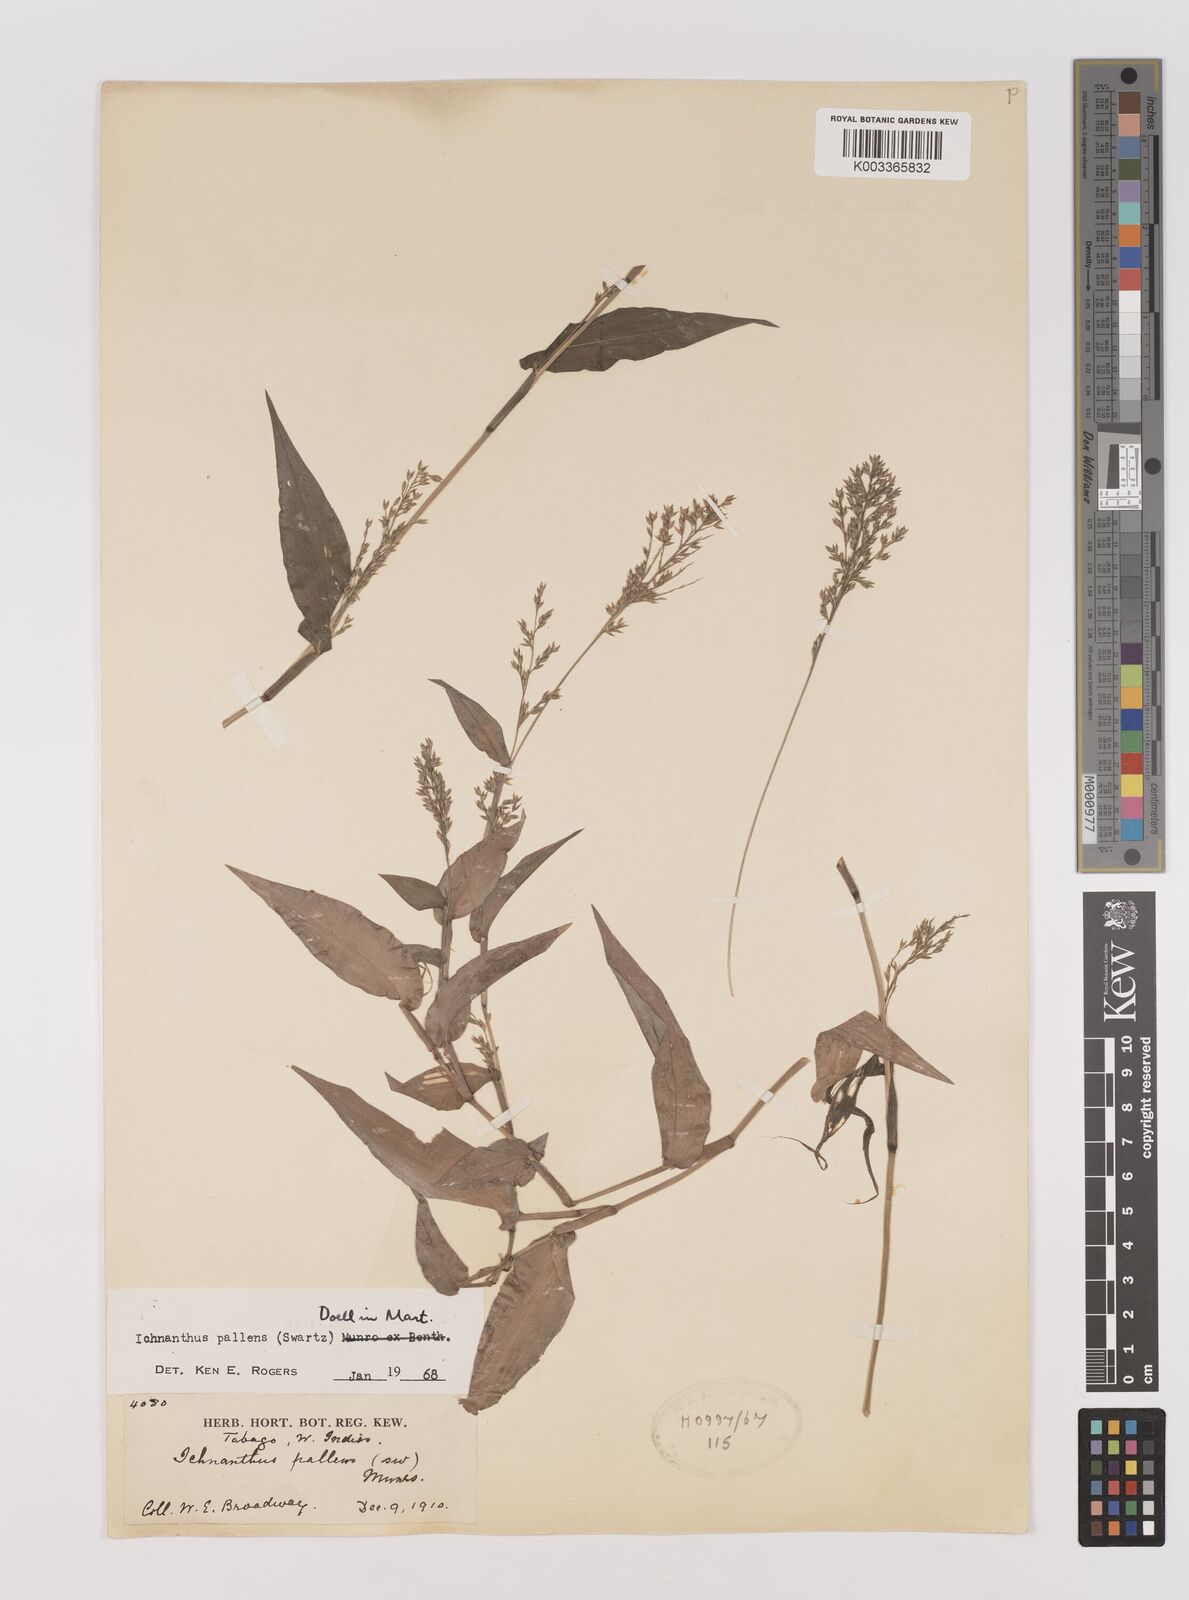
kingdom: Plantae
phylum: Tracheophyta
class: Liliopsida
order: Poales
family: Poaceae
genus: Ichnanthus
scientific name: Ichnanthus pallens
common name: Water grass
